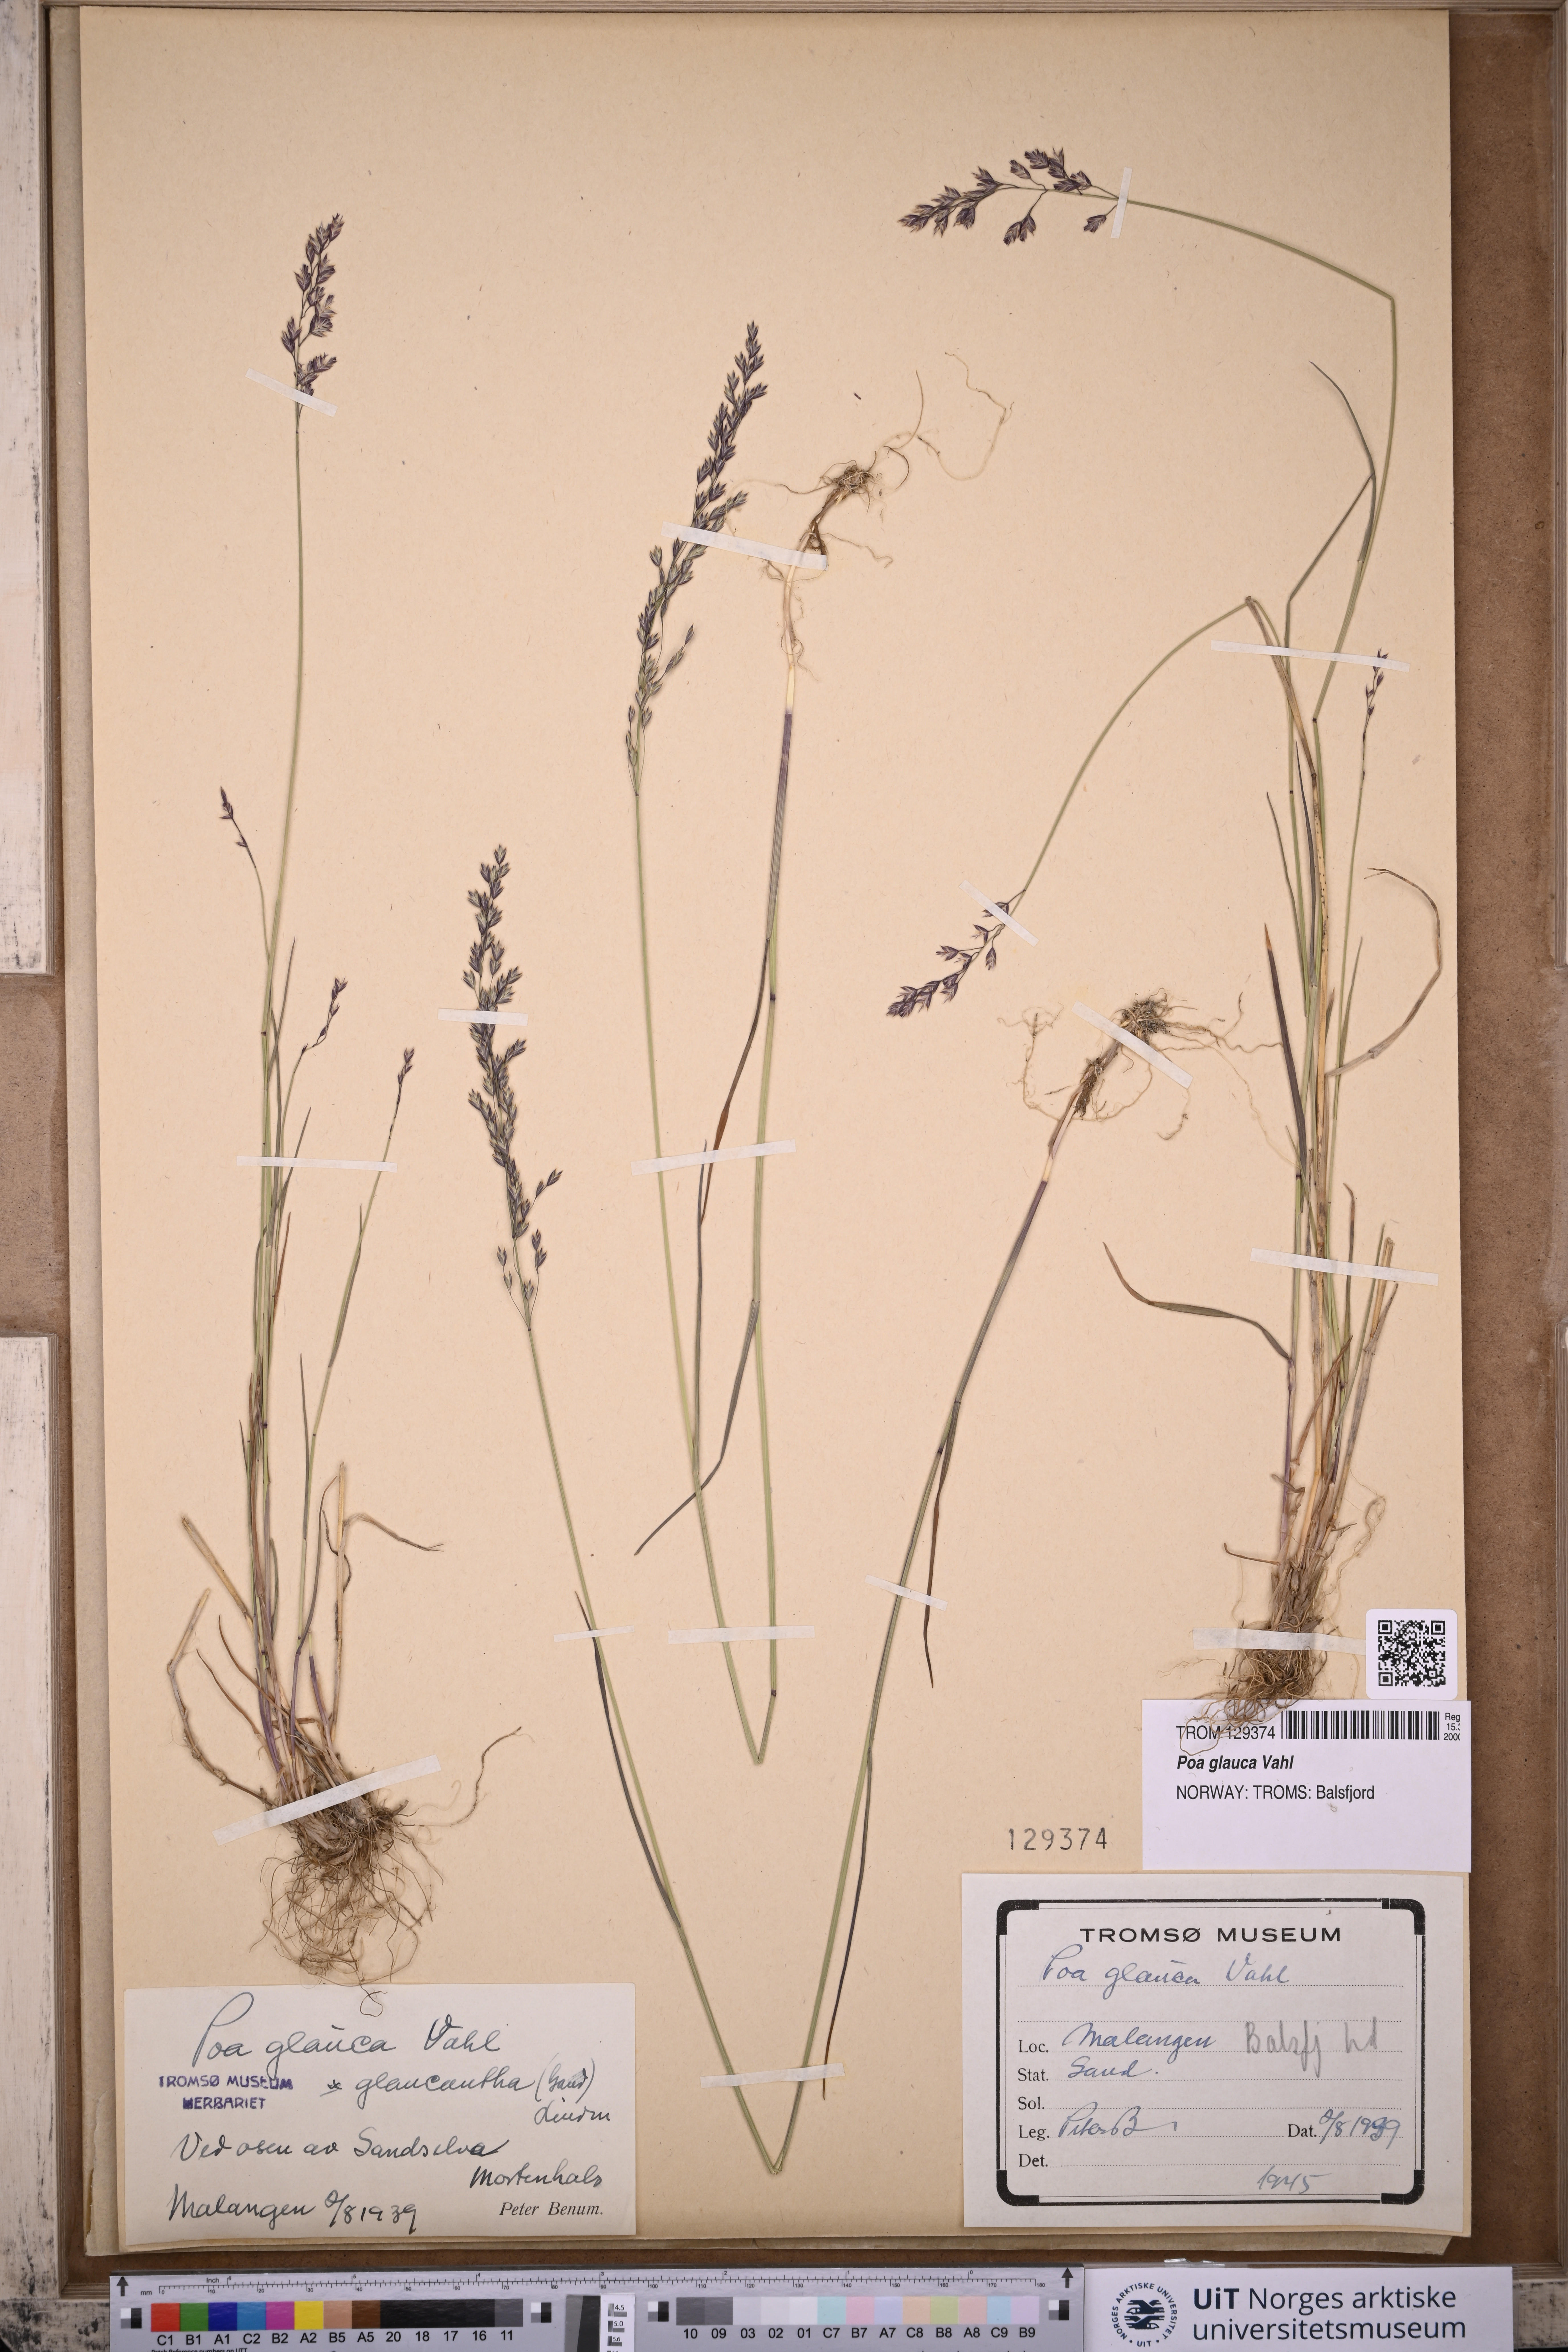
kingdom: Plantae
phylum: Tracheophyta
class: Liliopsida
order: Poales
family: Poaceae
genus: Poa
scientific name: Poa glauca
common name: Glaucous bluegrass
